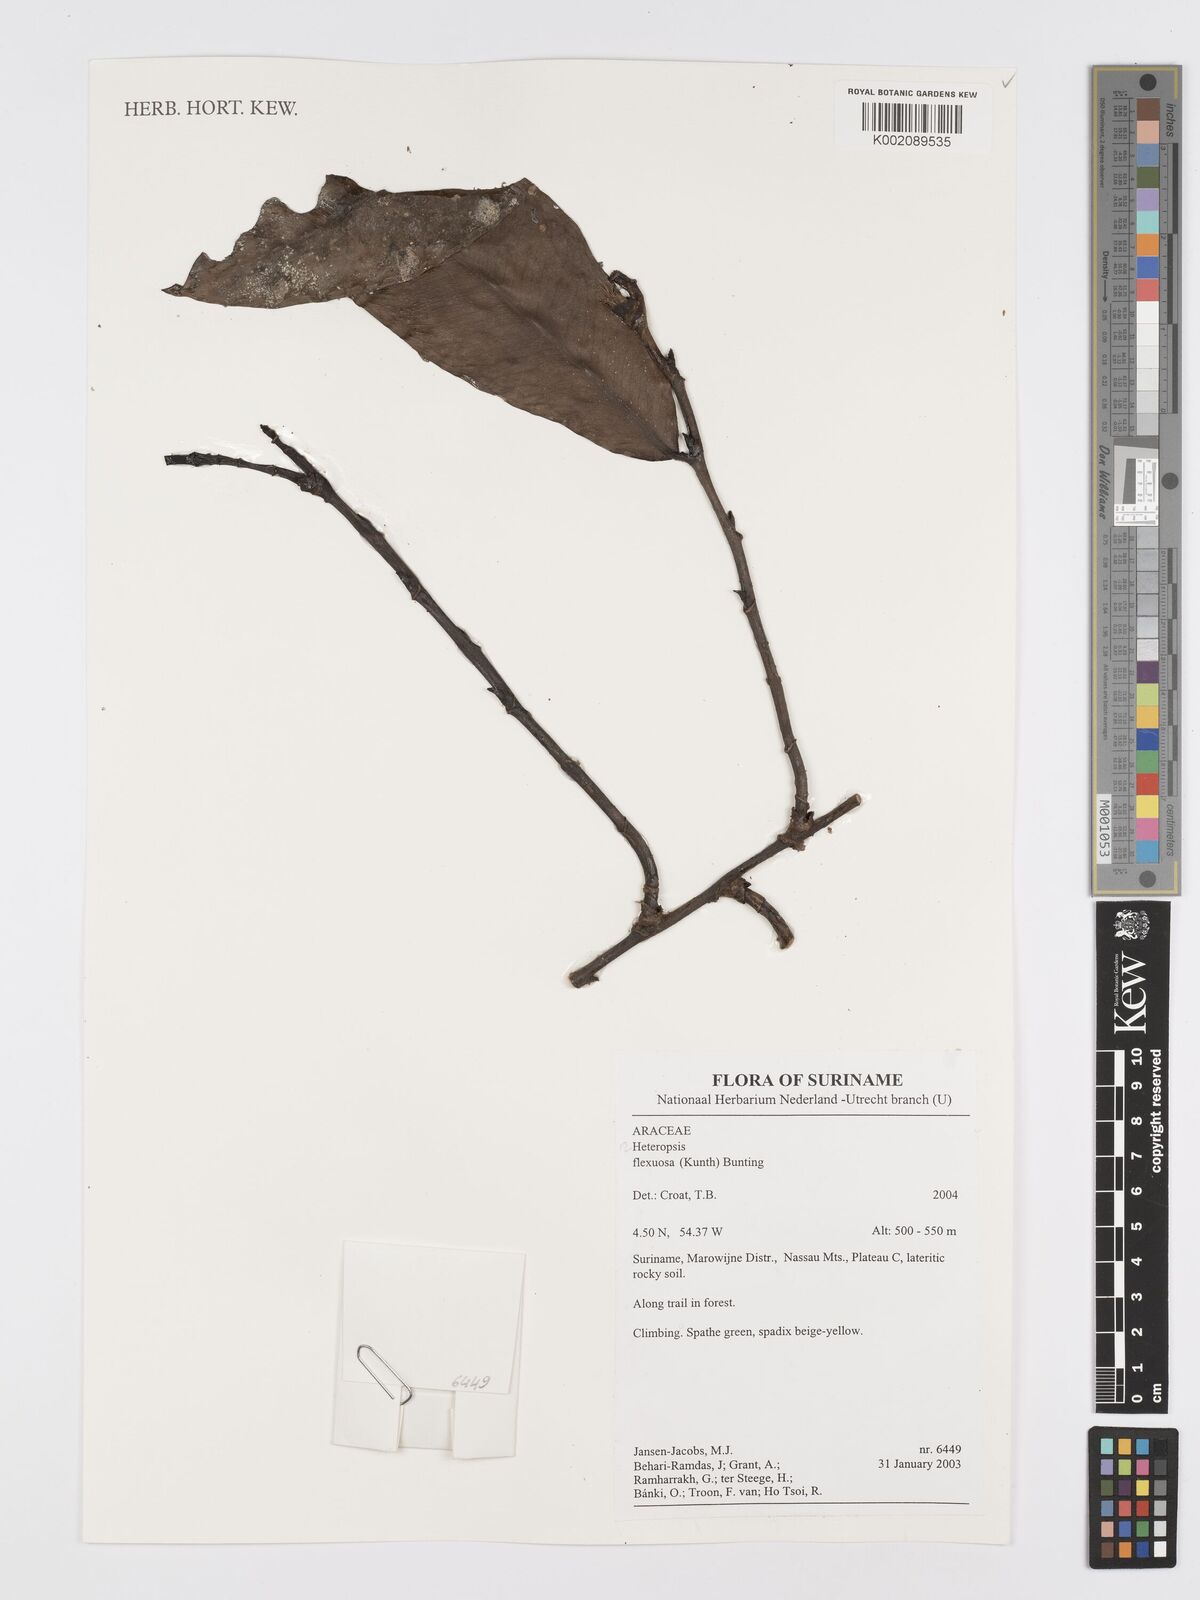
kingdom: Plantae
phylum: Tracheophyta
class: Liliopsida
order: Alismatales
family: Araceae
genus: Heteropsis
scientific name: Heteropsis flexuosa
